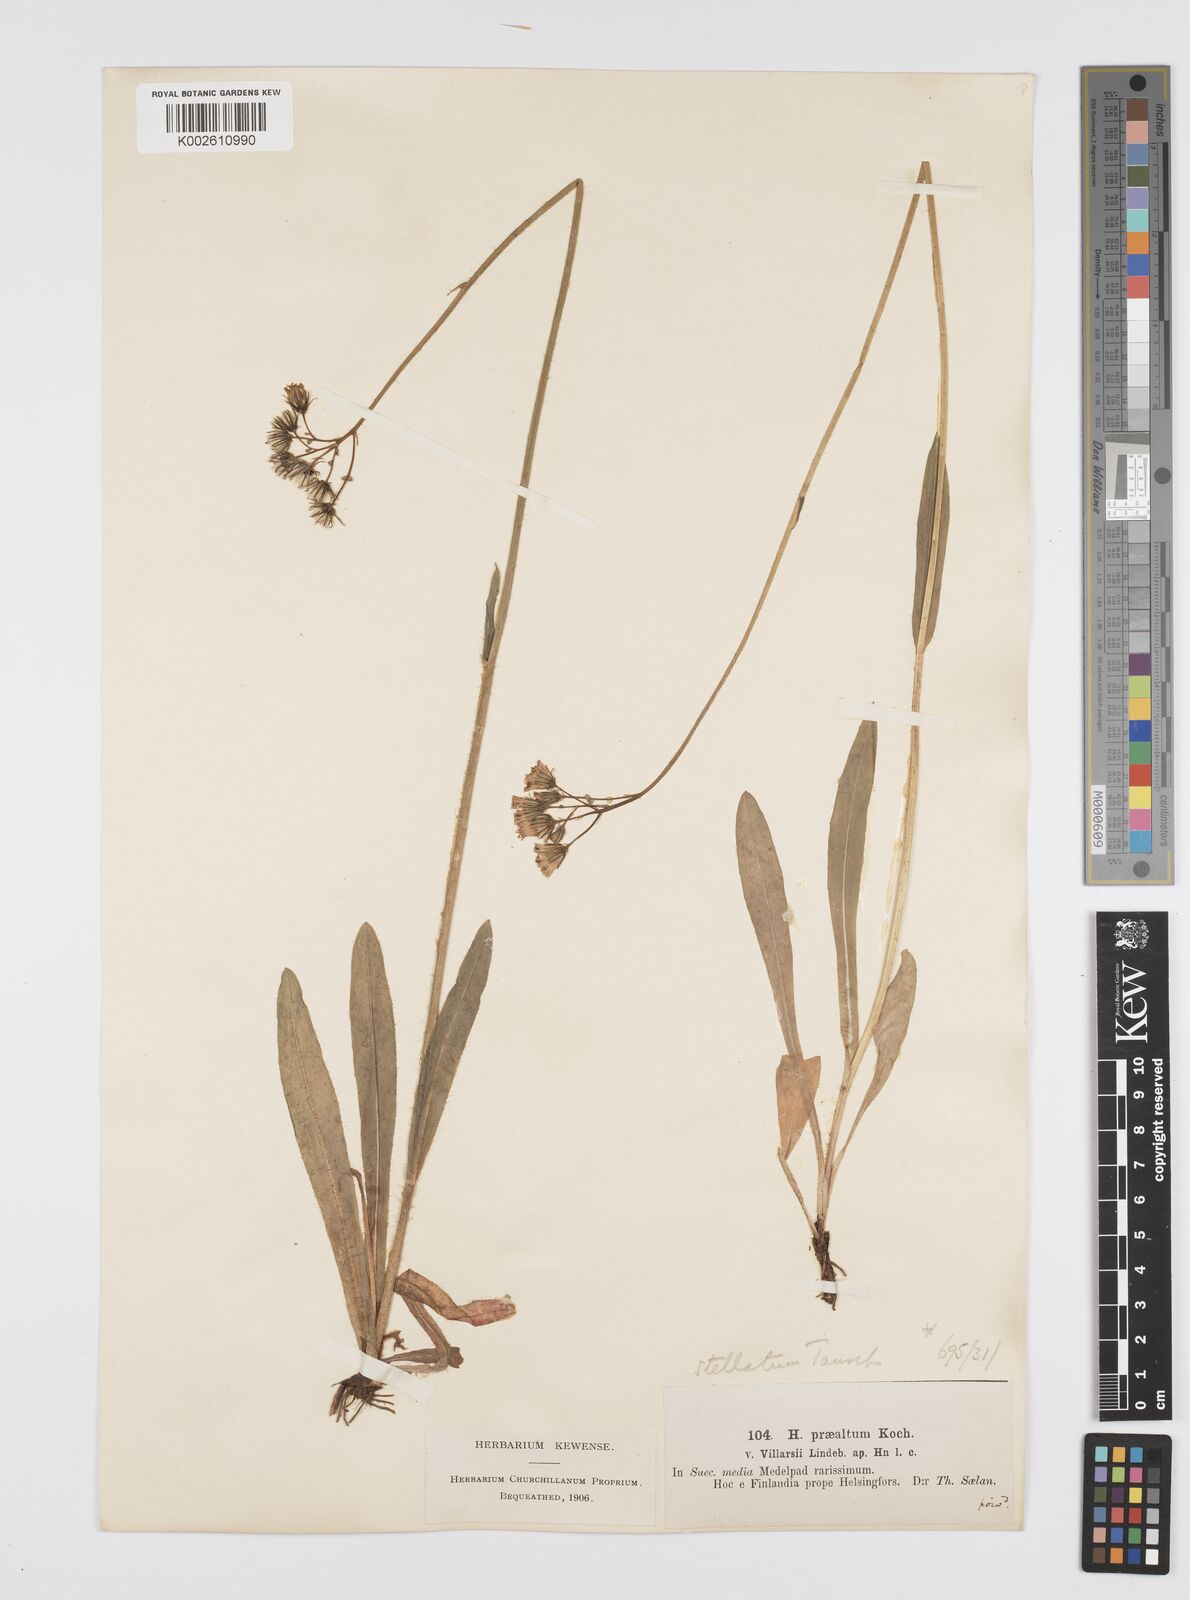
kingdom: Plantae
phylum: Tracheophyta
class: Magnoliopsida
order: Asterales
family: Asteraceae
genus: Pilosella
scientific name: Pilosella piloselloides
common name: Glaucous king-devil
